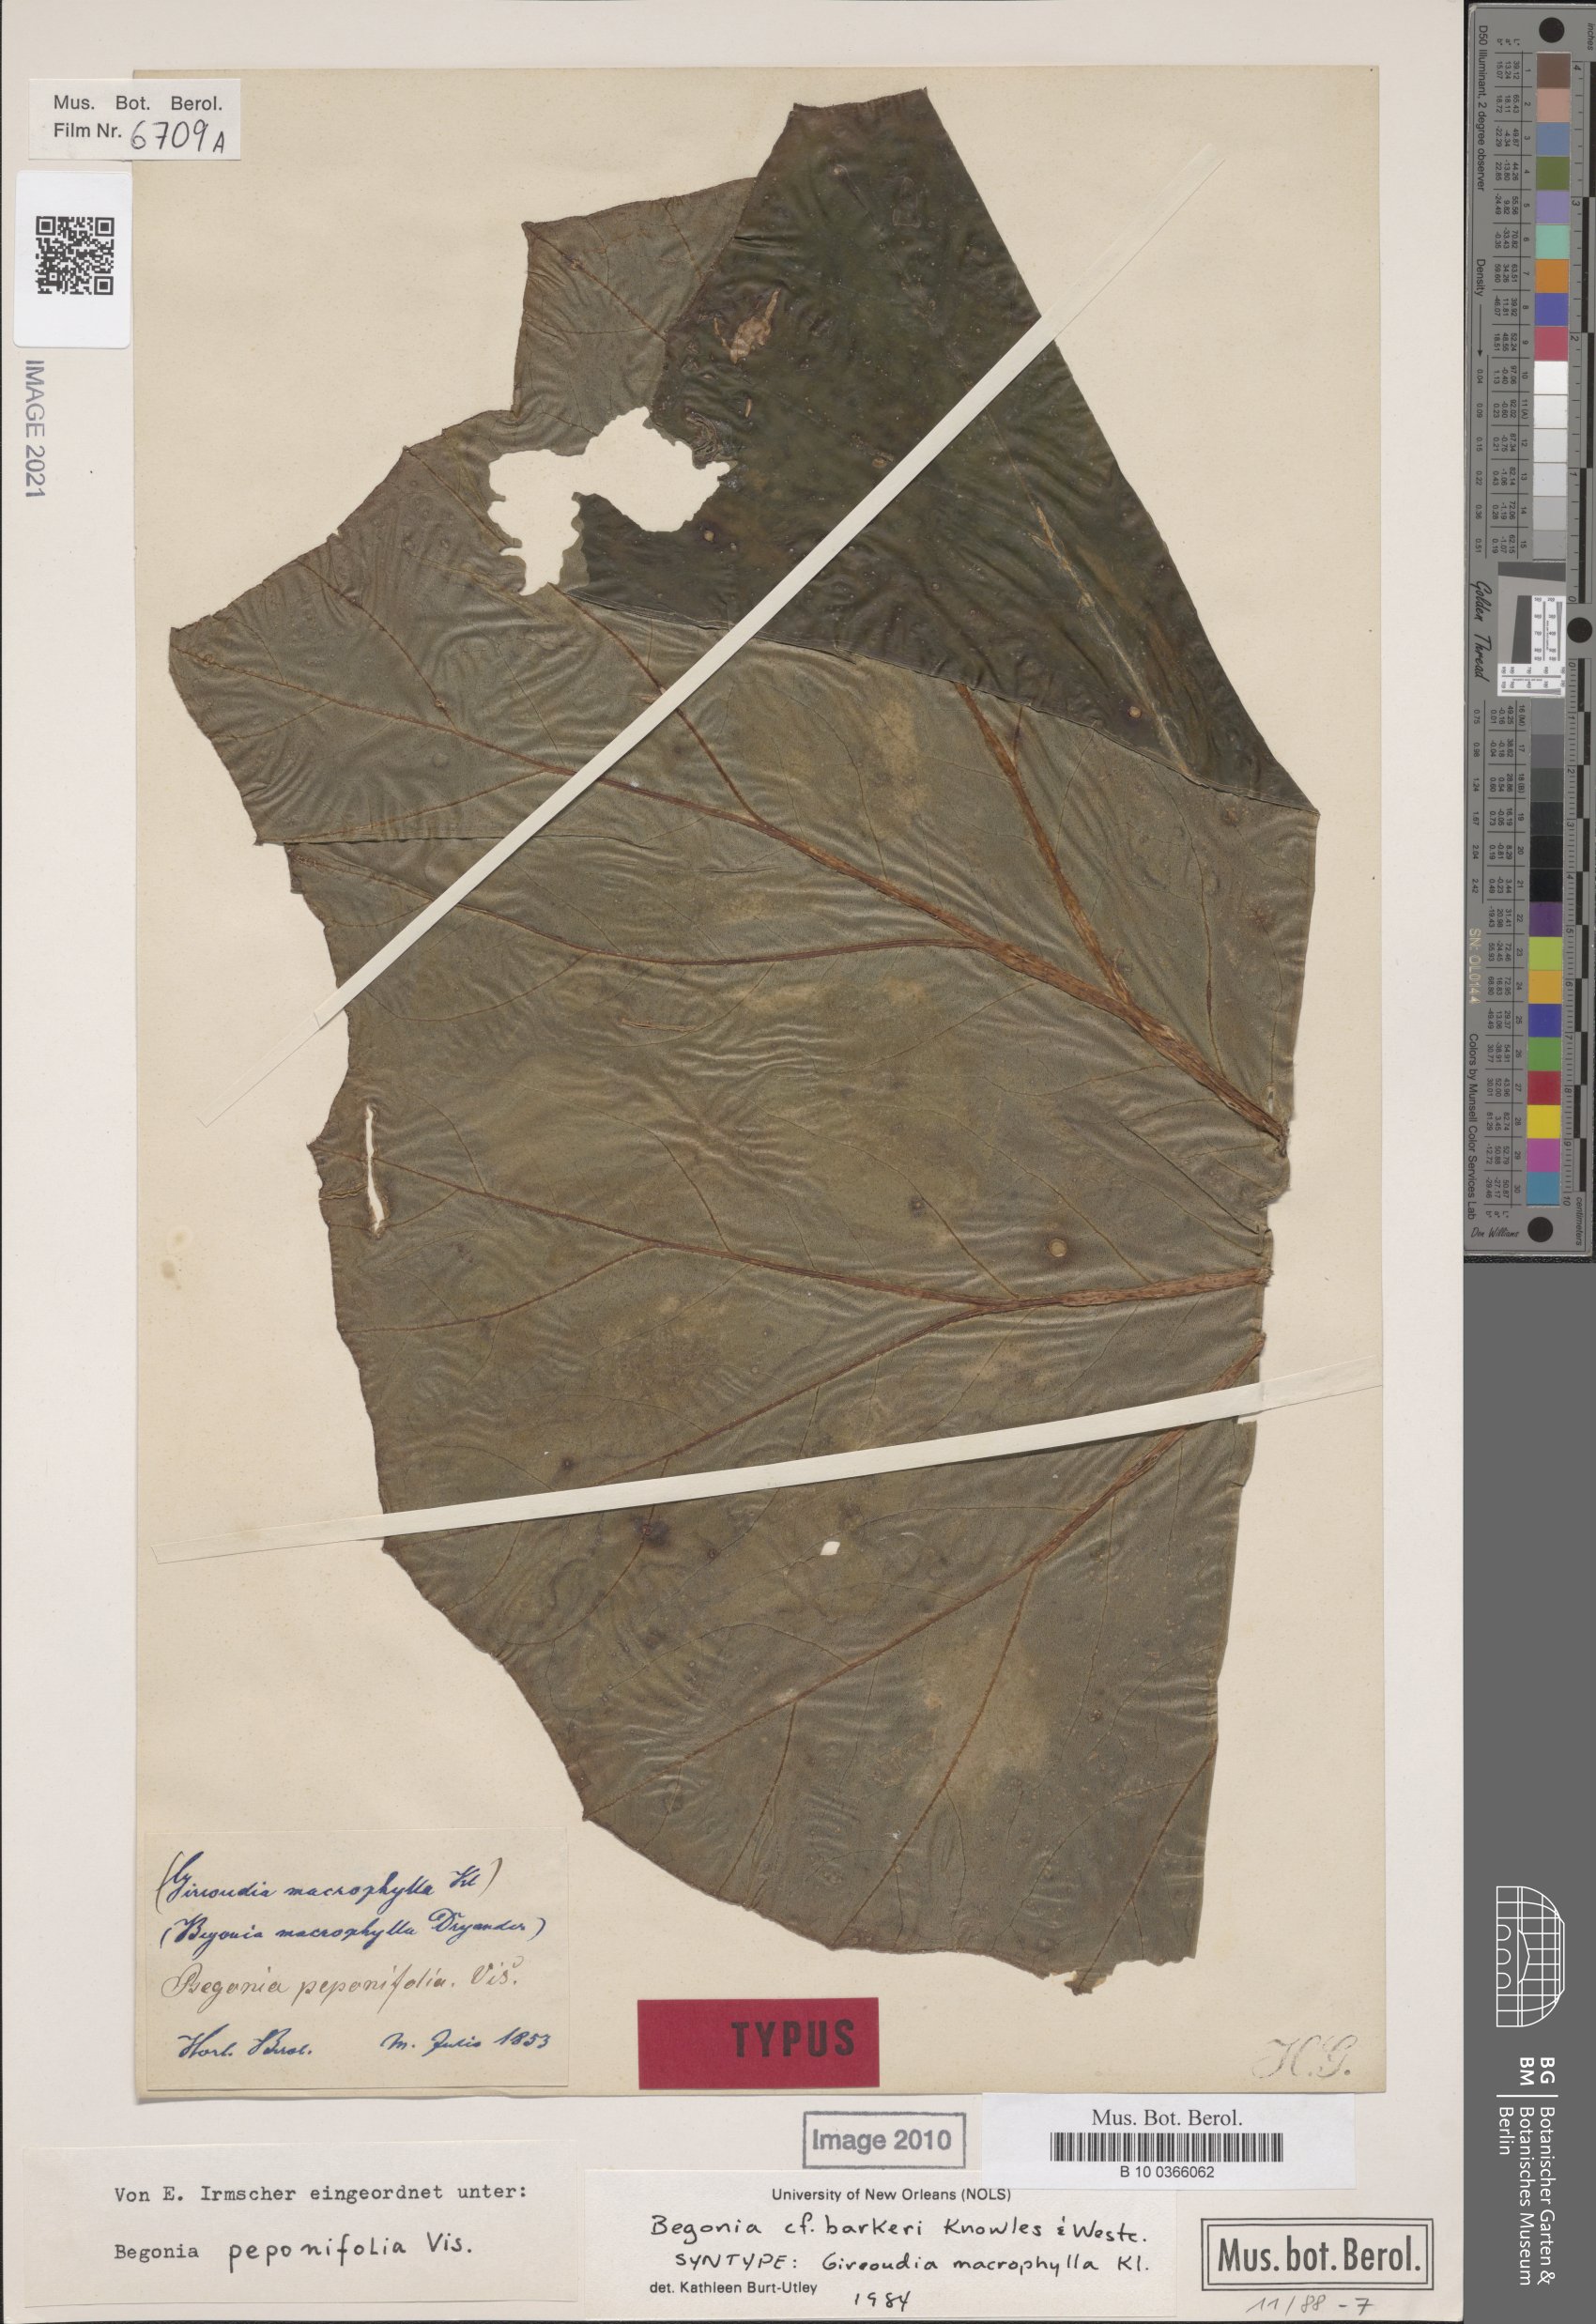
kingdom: Plantae
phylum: Tracheophyta
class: Magnoliopsida
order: Cucurbitales
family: Begoniaceae
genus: Begonia
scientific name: Begonia barkeri
